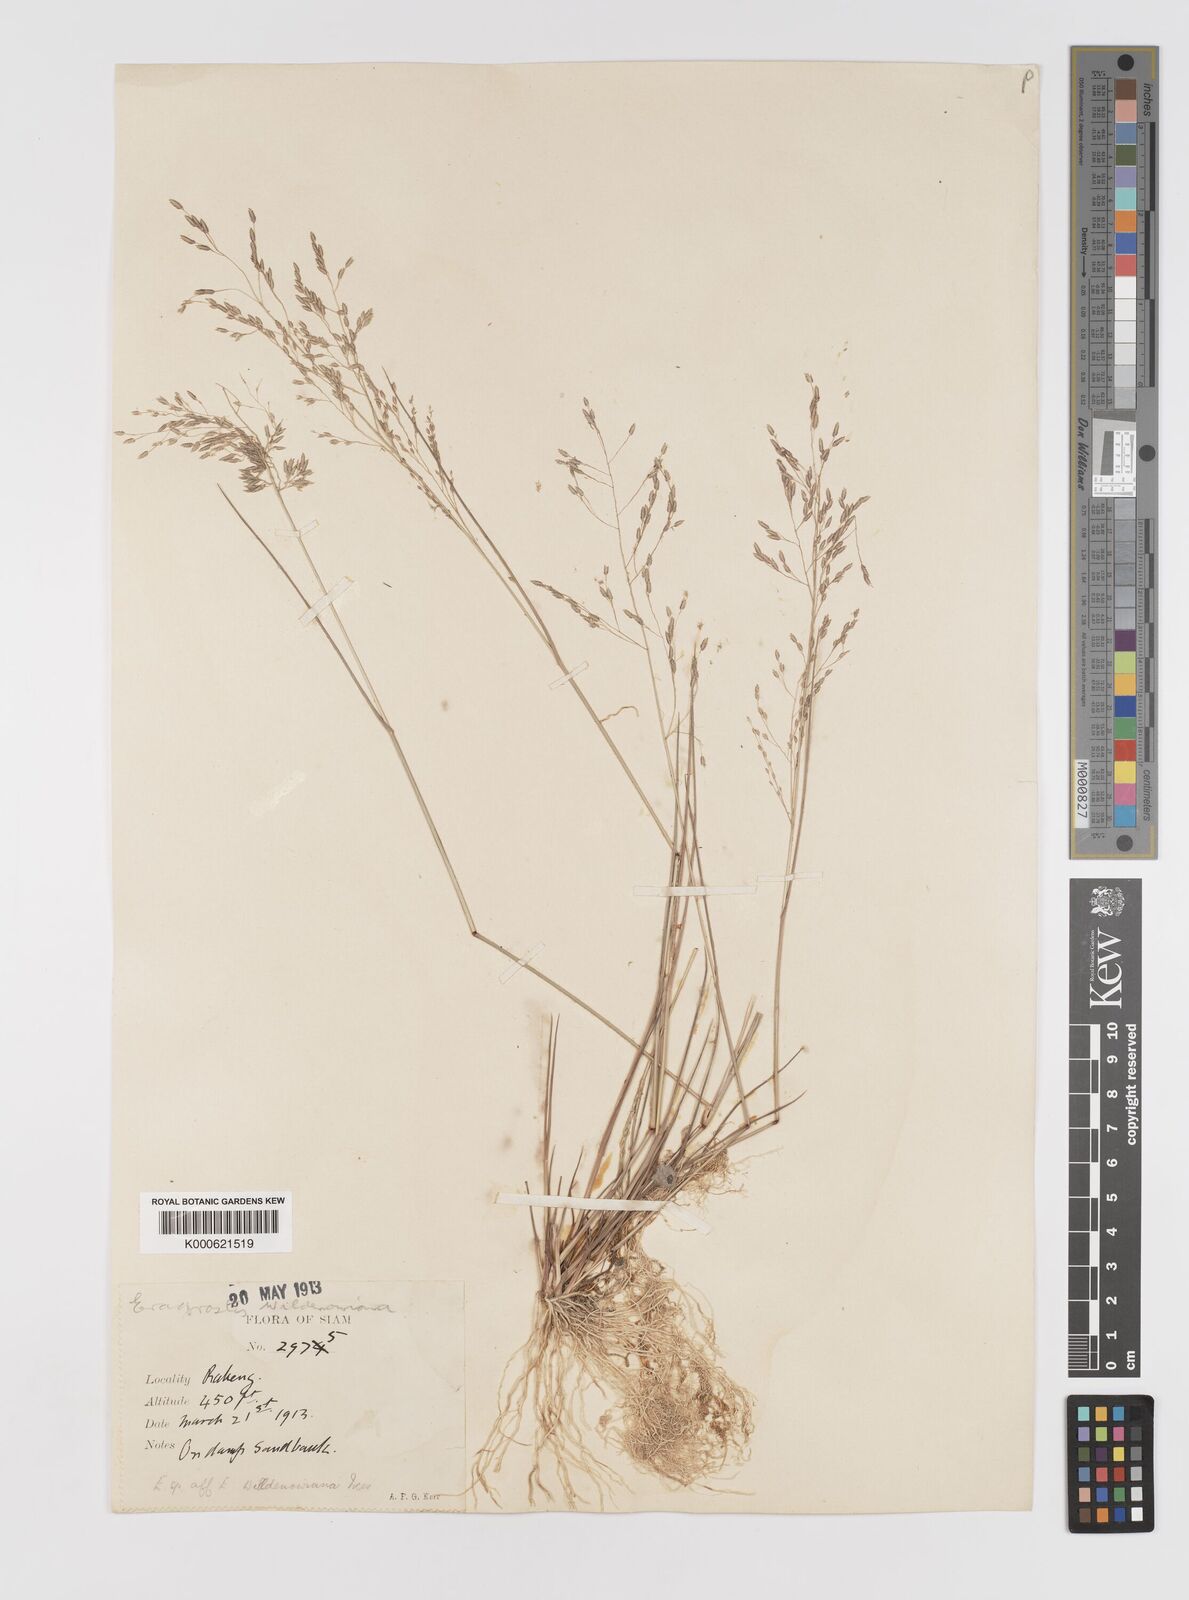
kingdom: Plantae
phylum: Tracheophyta
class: Liliopsida
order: Poales
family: Poaceae
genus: Eragrostis
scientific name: Eragrostis
